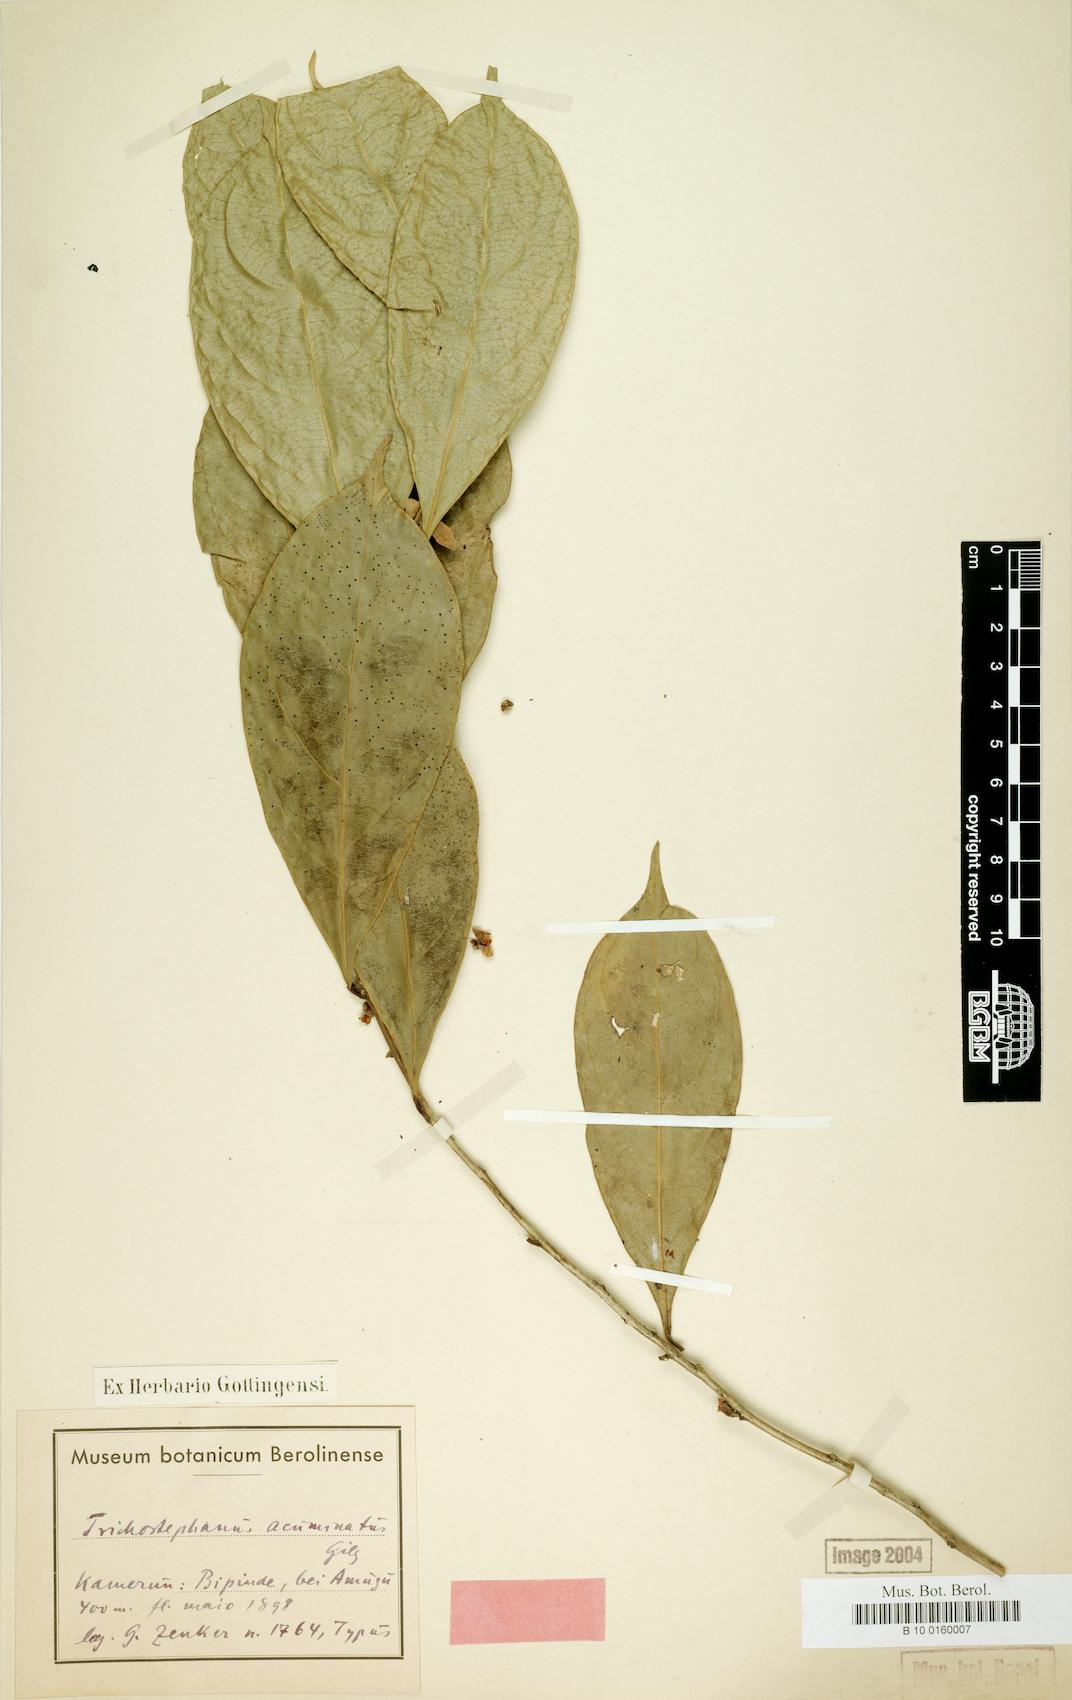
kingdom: Plantae
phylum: Tracheophyta
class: Magnoliopsida
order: Malpighiales
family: Salicaceae
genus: Trichostephanus
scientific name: Trichostephanus acuminatus
